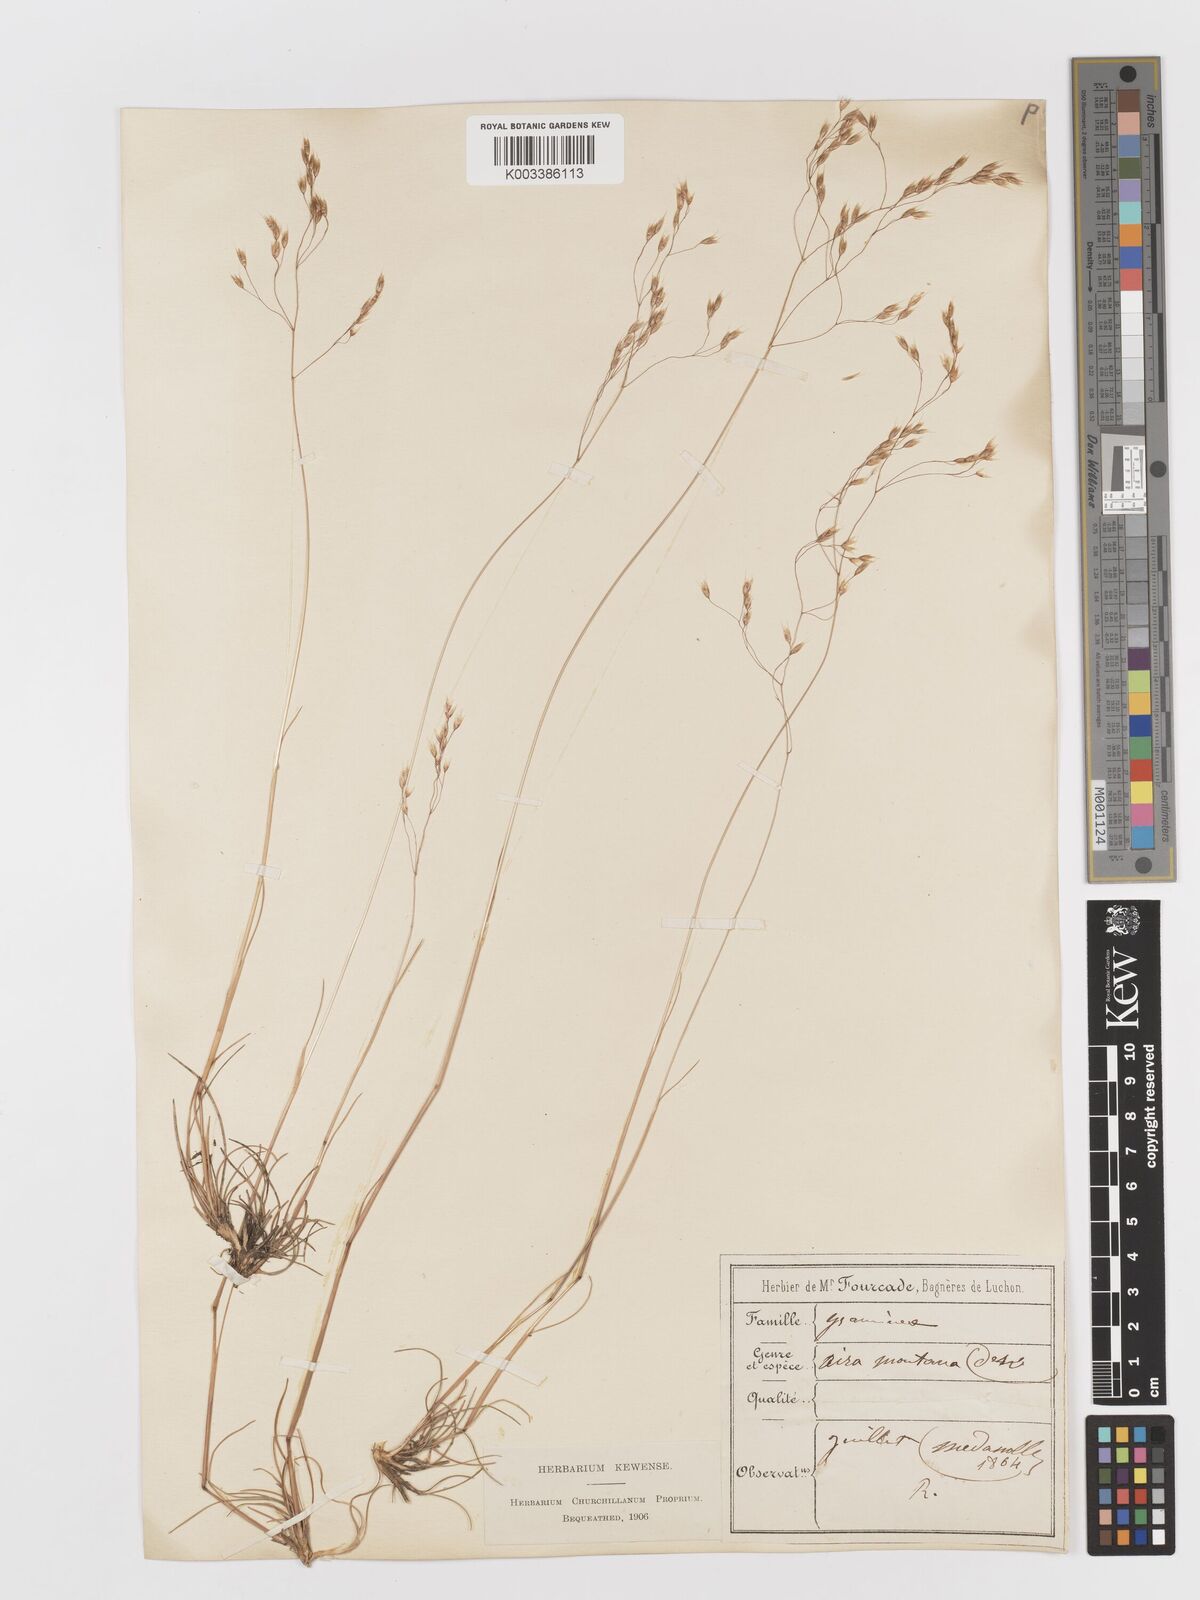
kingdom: Plantae
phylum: Tracheophyta
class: Liliopsida
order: Poales
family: Poaceae
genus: Avenella
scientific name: Avenella flexuosa
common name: Wavy hairgrass
